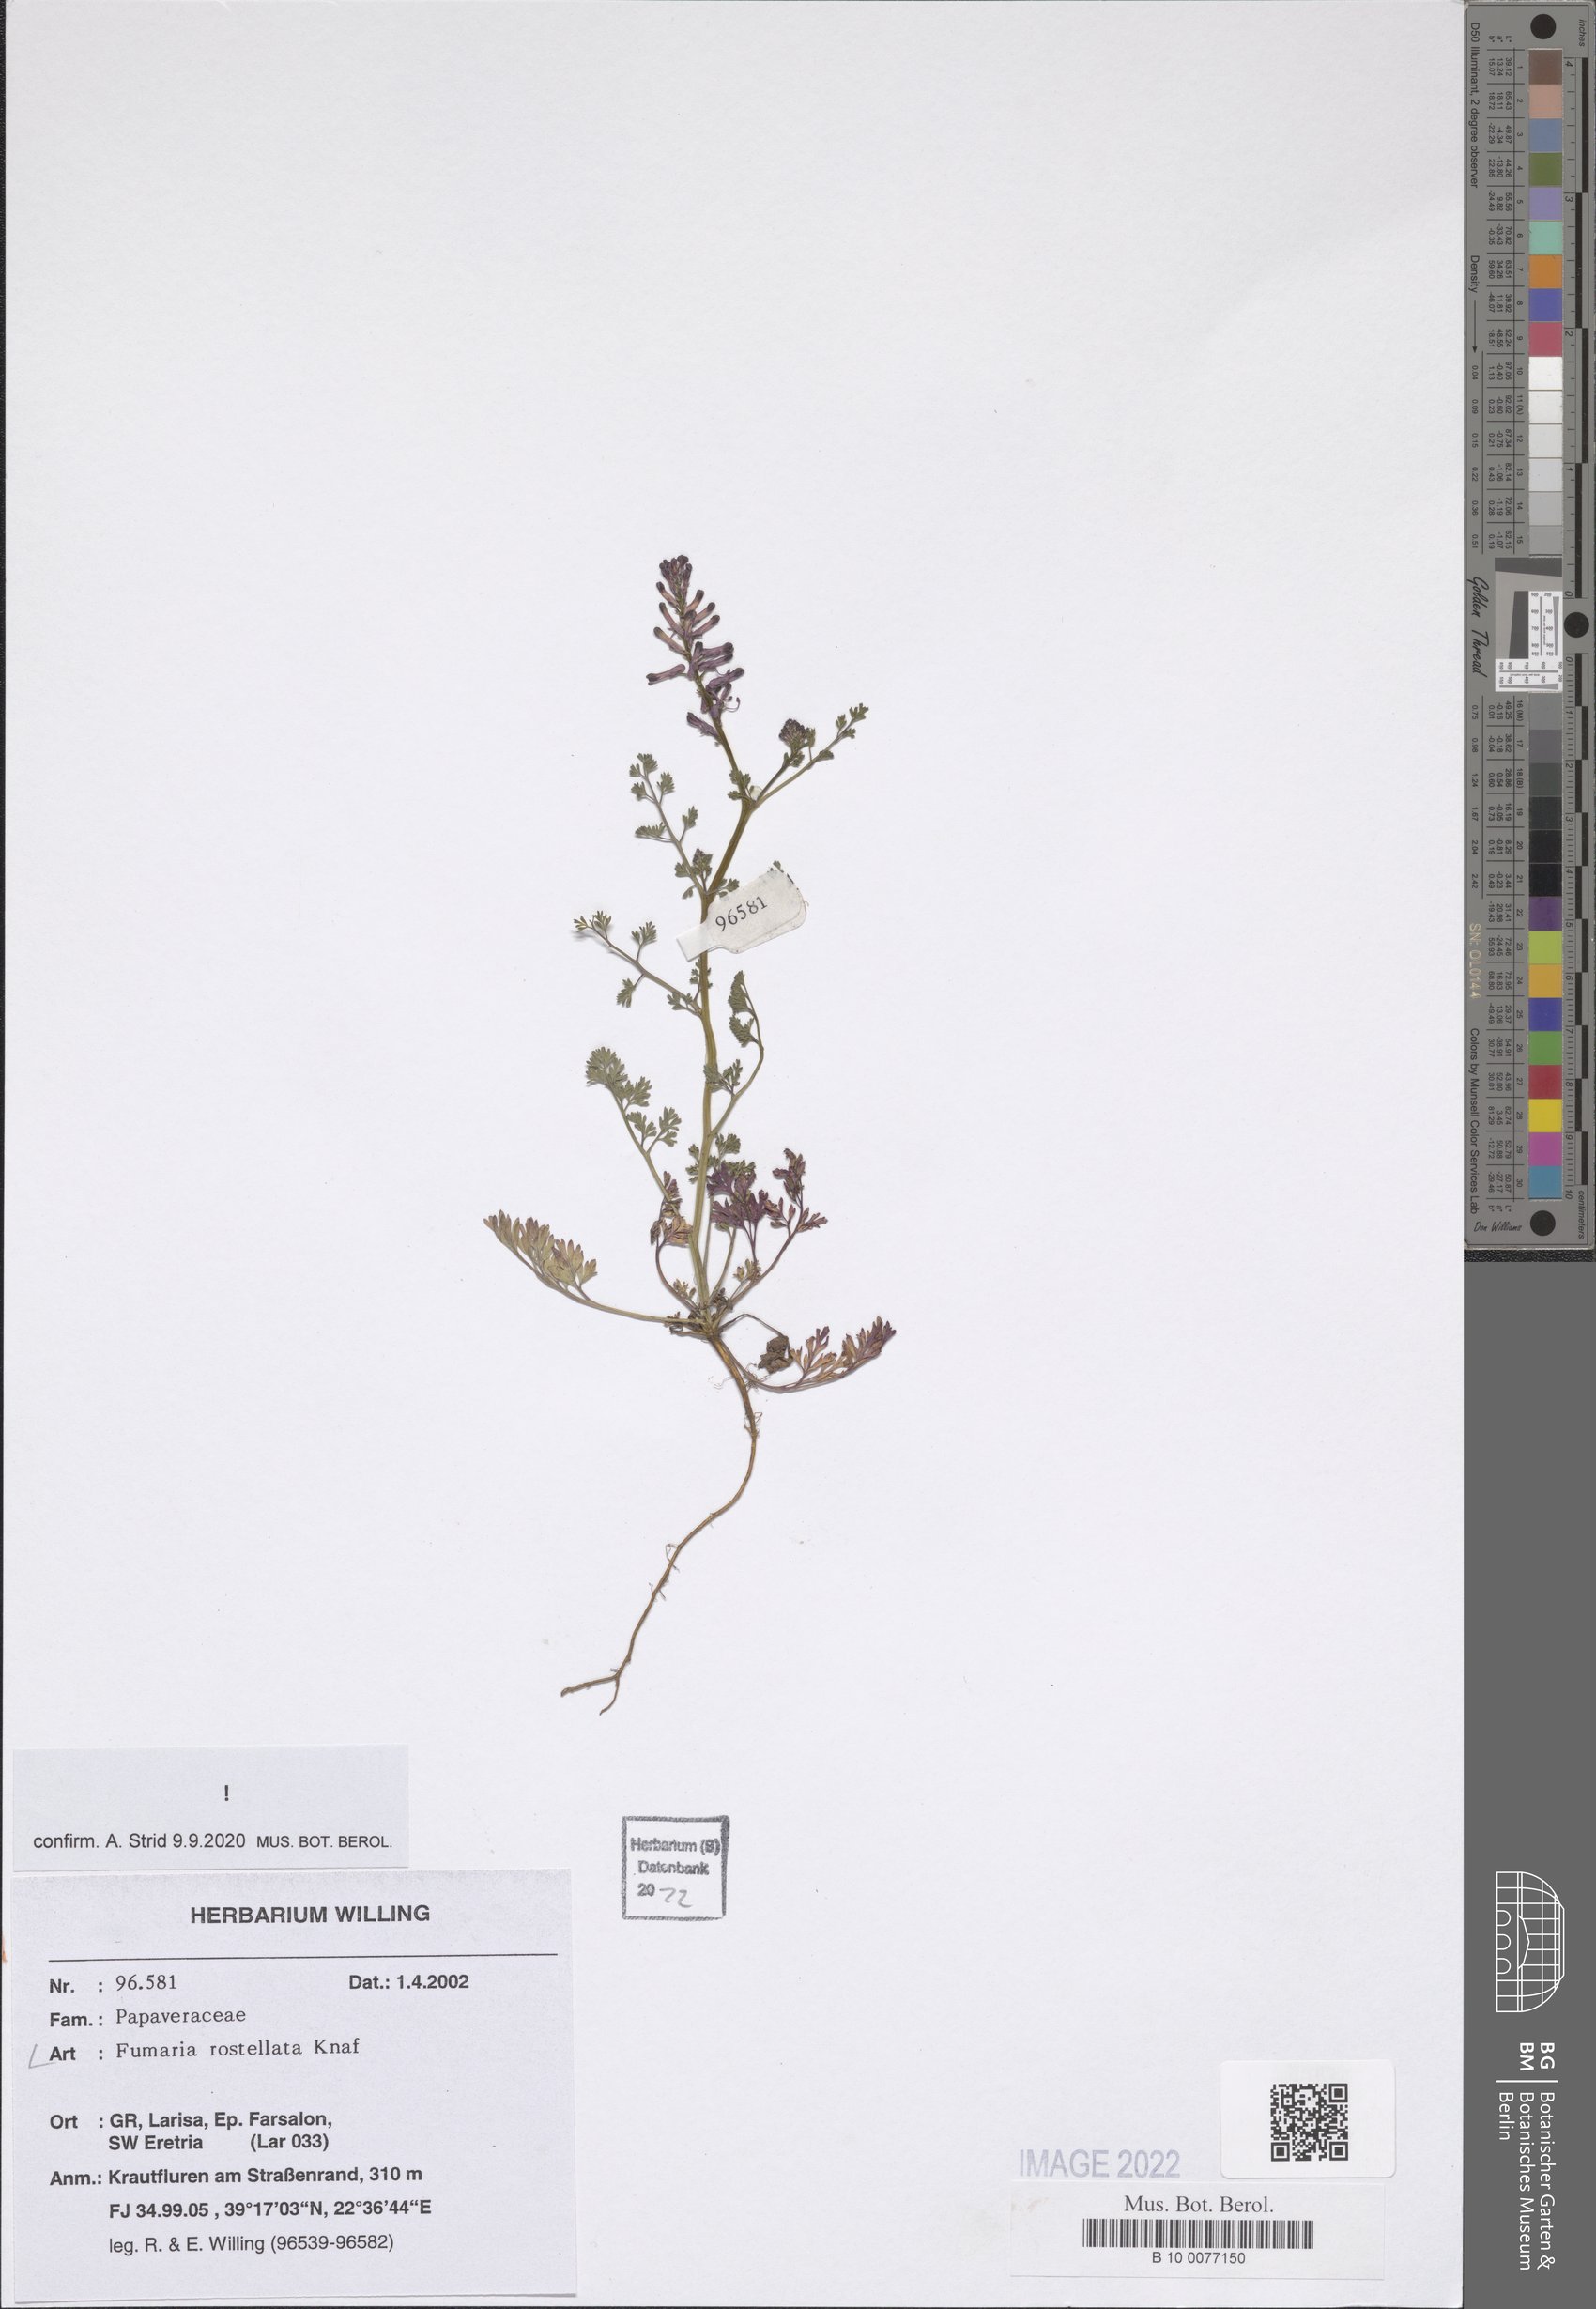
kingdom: Plantae
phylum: Tracheophyta
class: Magnoliopsida
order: Ranunculales
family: Papaveraceae
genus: Fumaria
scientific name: Fumaria rostellata
